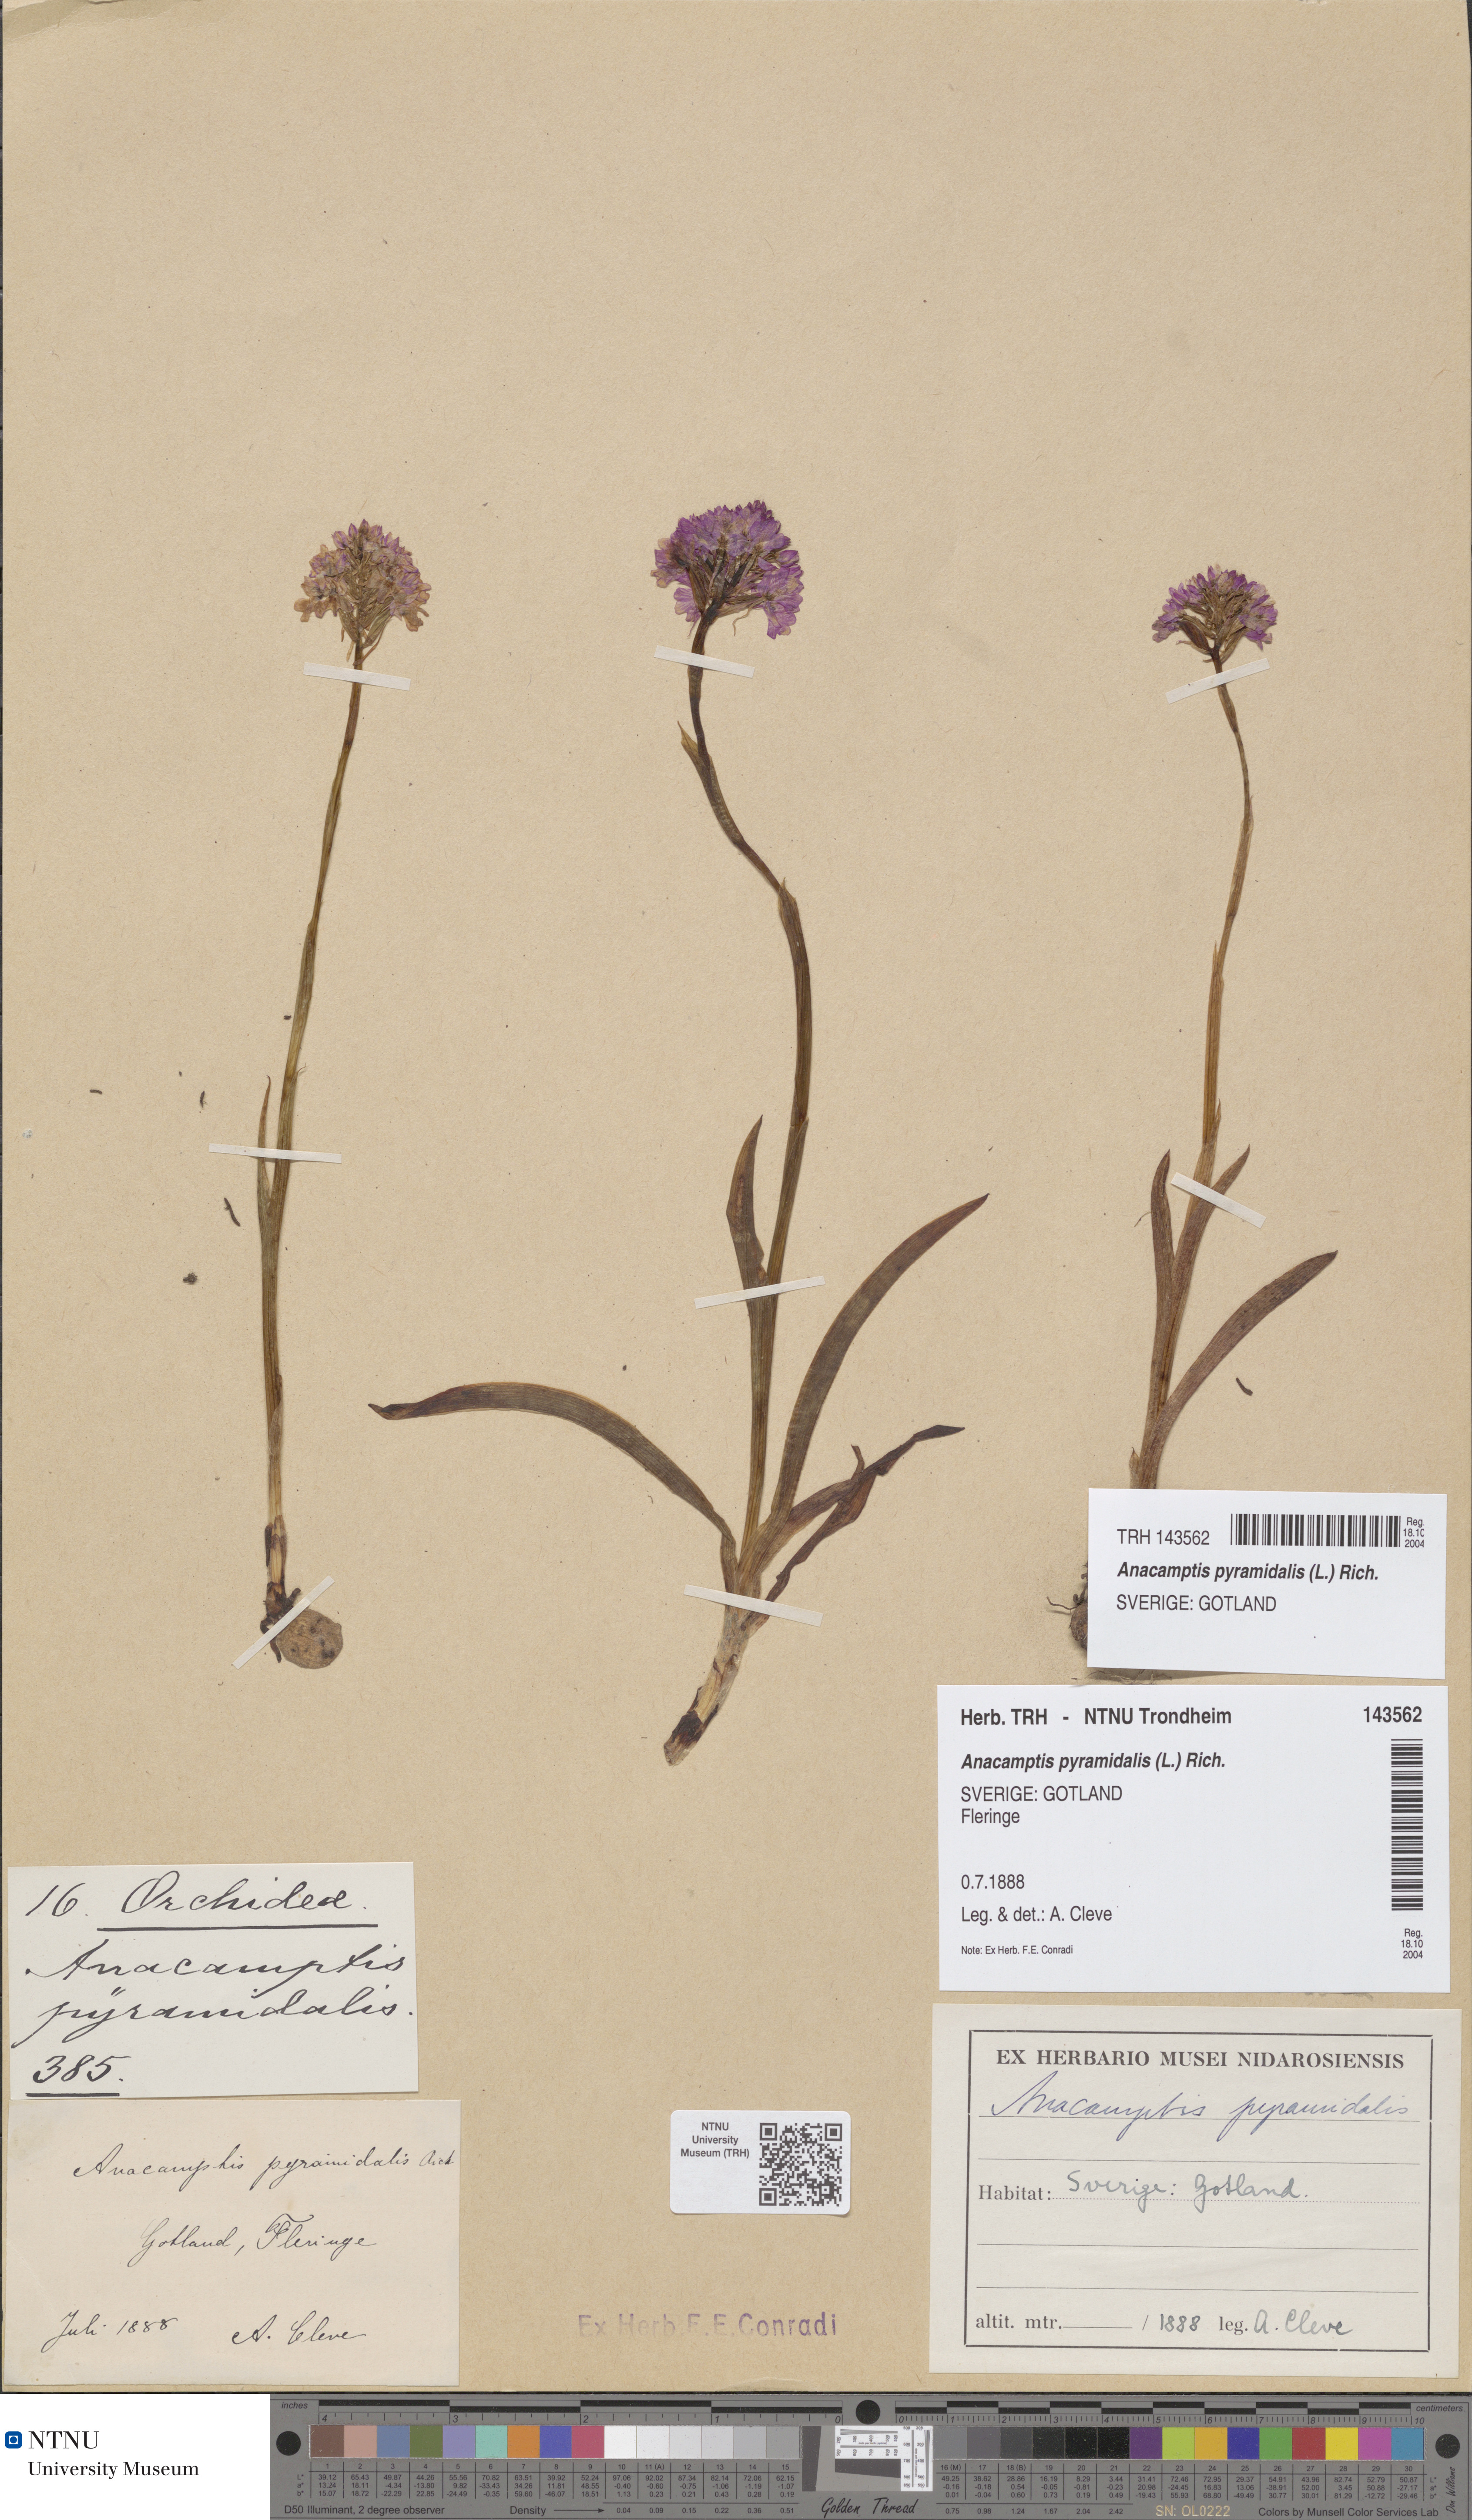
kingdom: Plantae
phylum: Tracheophyta
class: Liliopsida
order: Asparagales
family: Orchidaceae
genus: Anacamptis
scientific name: Anacamptis pyramidalis
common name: Pyramidal orchid
